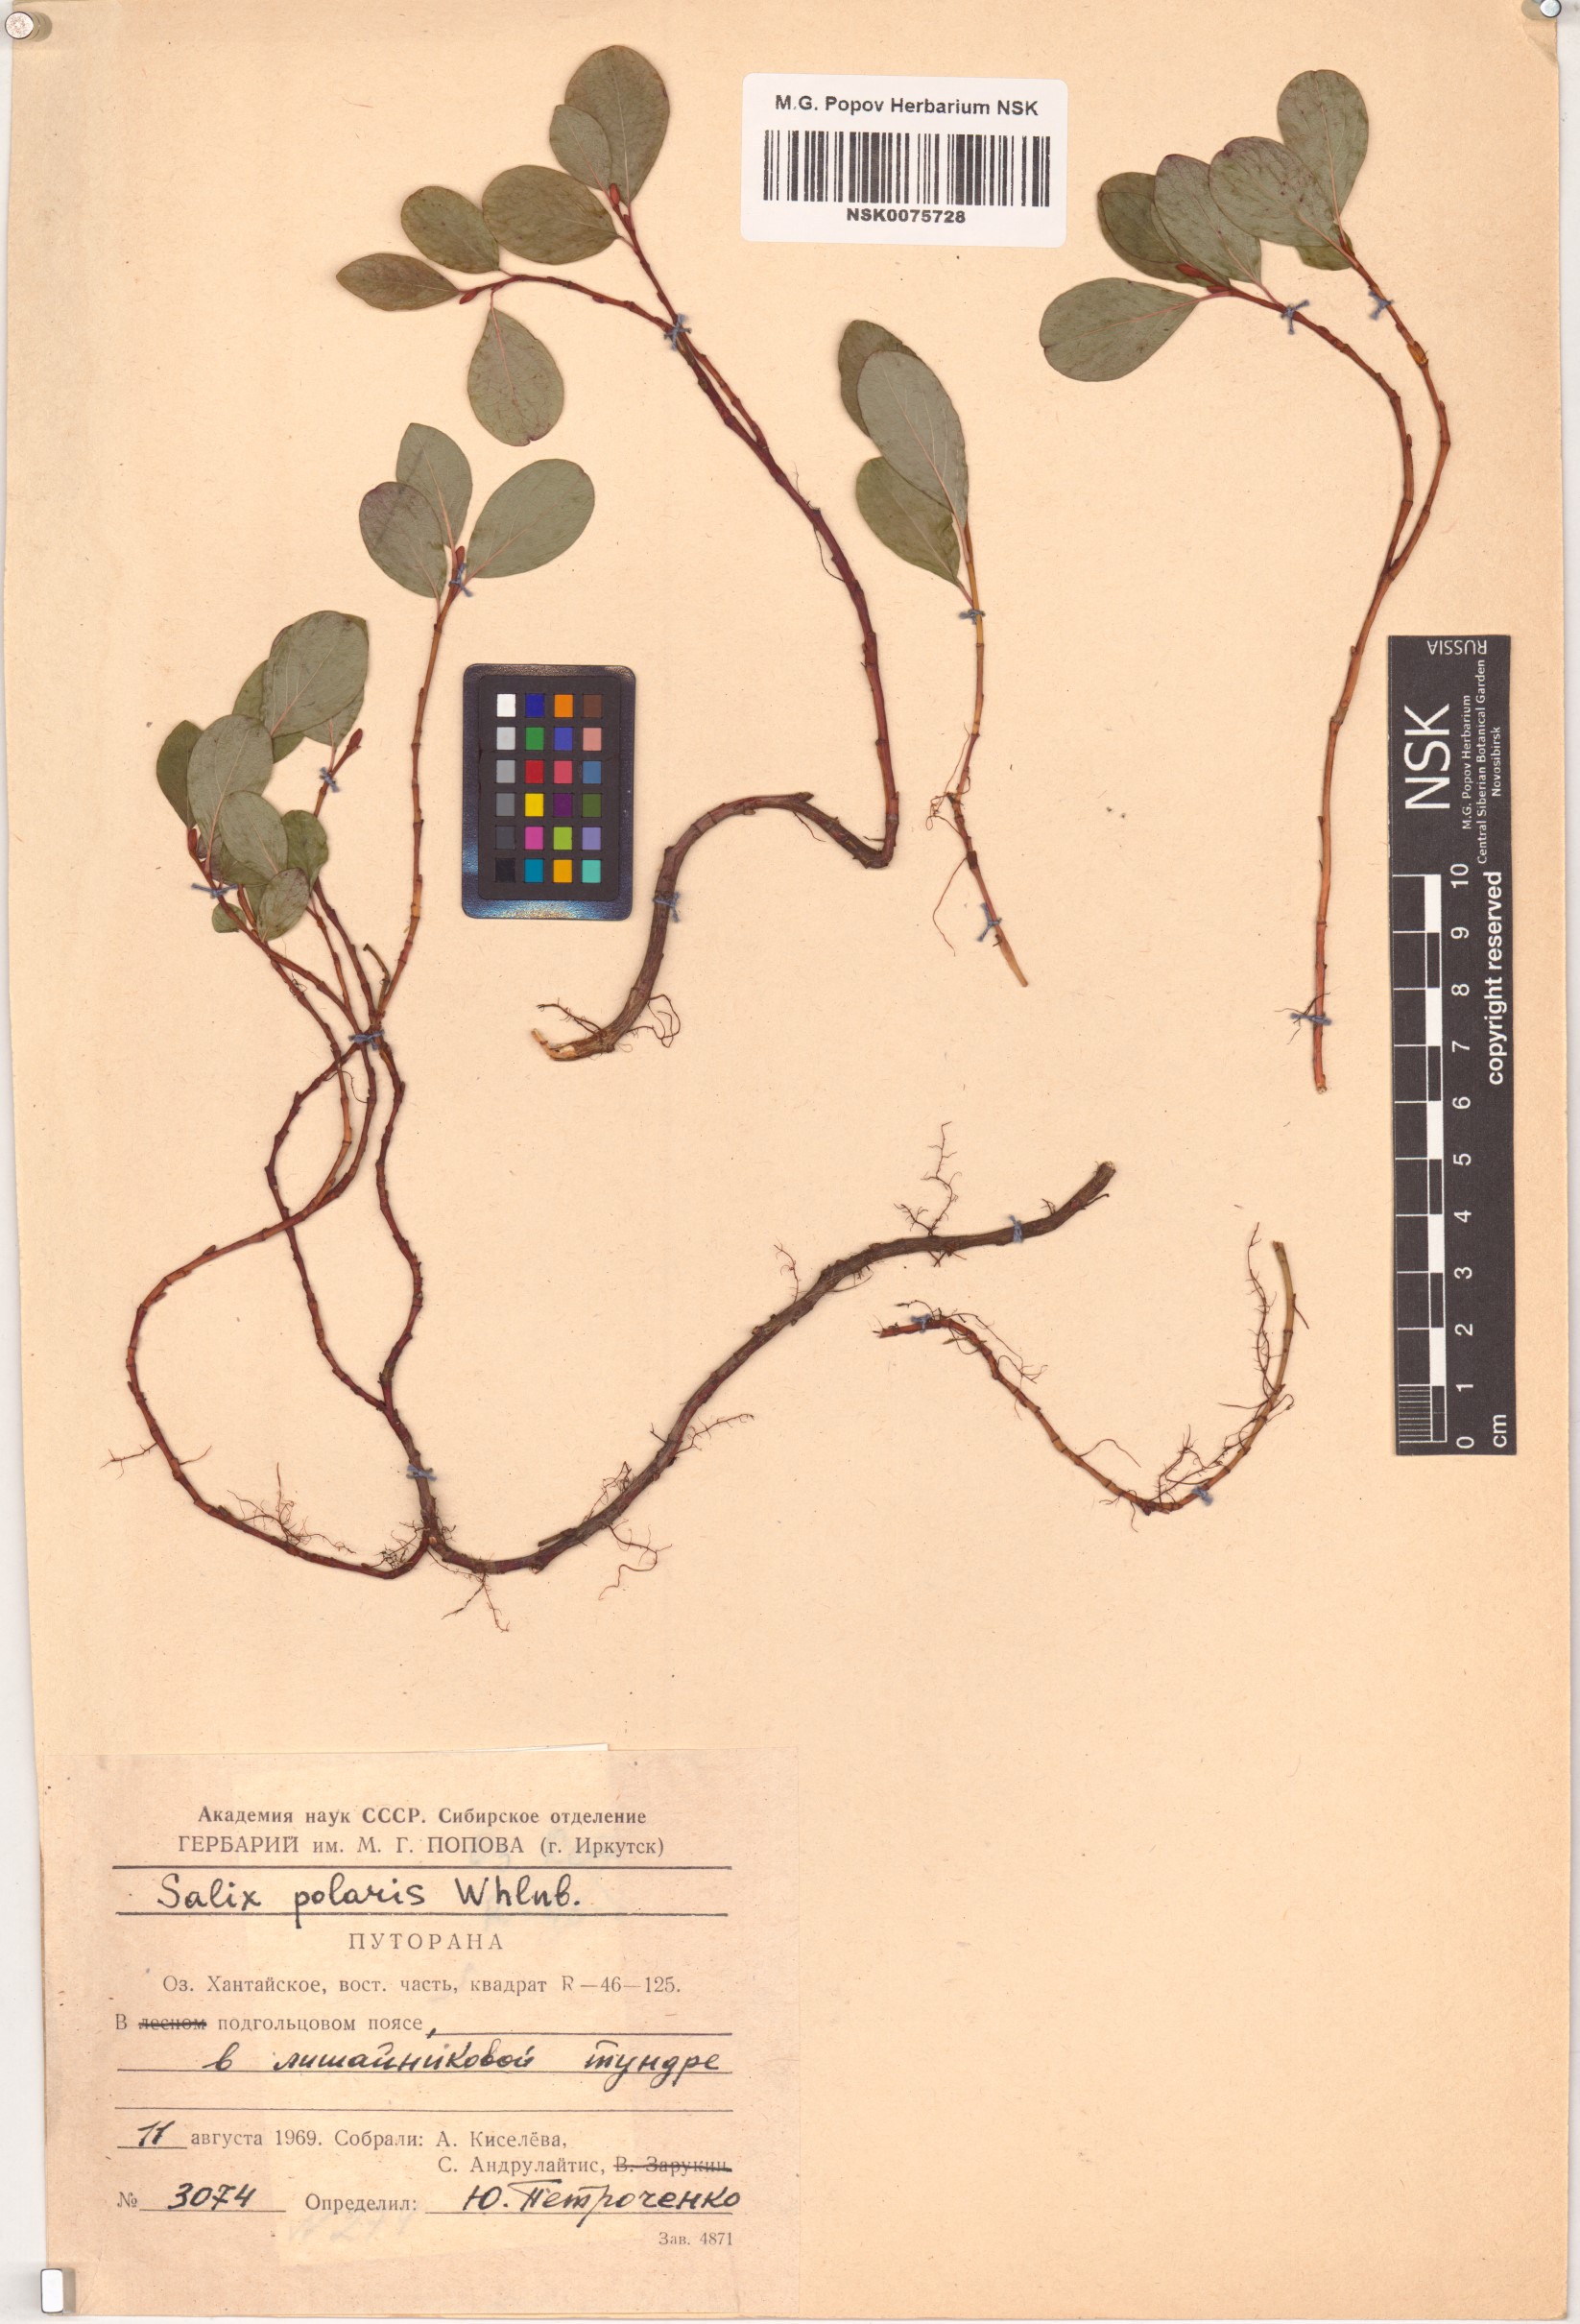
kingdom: Plantae
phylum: Tracheophyta
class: Magnoliopsida
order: Malpighiales
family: Salicaceae
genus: Salix
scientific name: Salix polaris
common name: Polar willow
